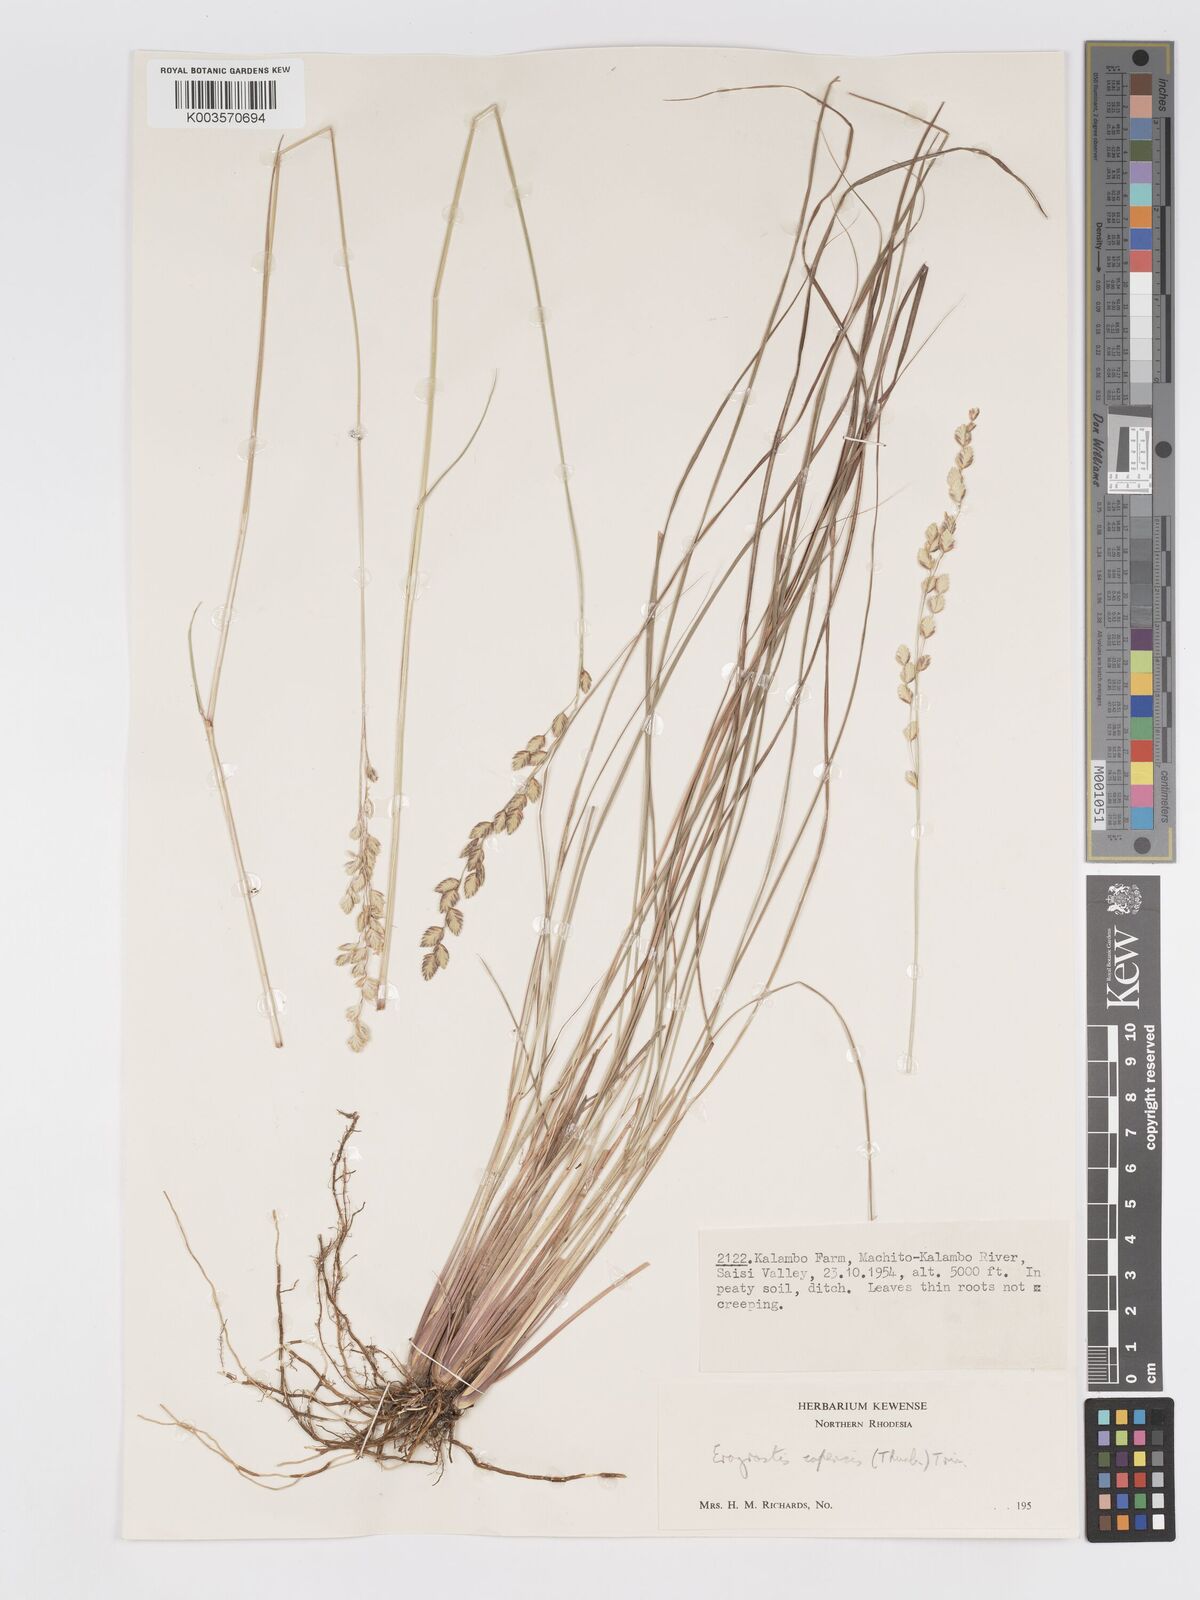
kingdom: Plantae
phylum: Tracheophyta
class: Liliopsida
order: Poales
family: Poaceae
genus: Eragrostis
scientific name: Eragrostis capensis
